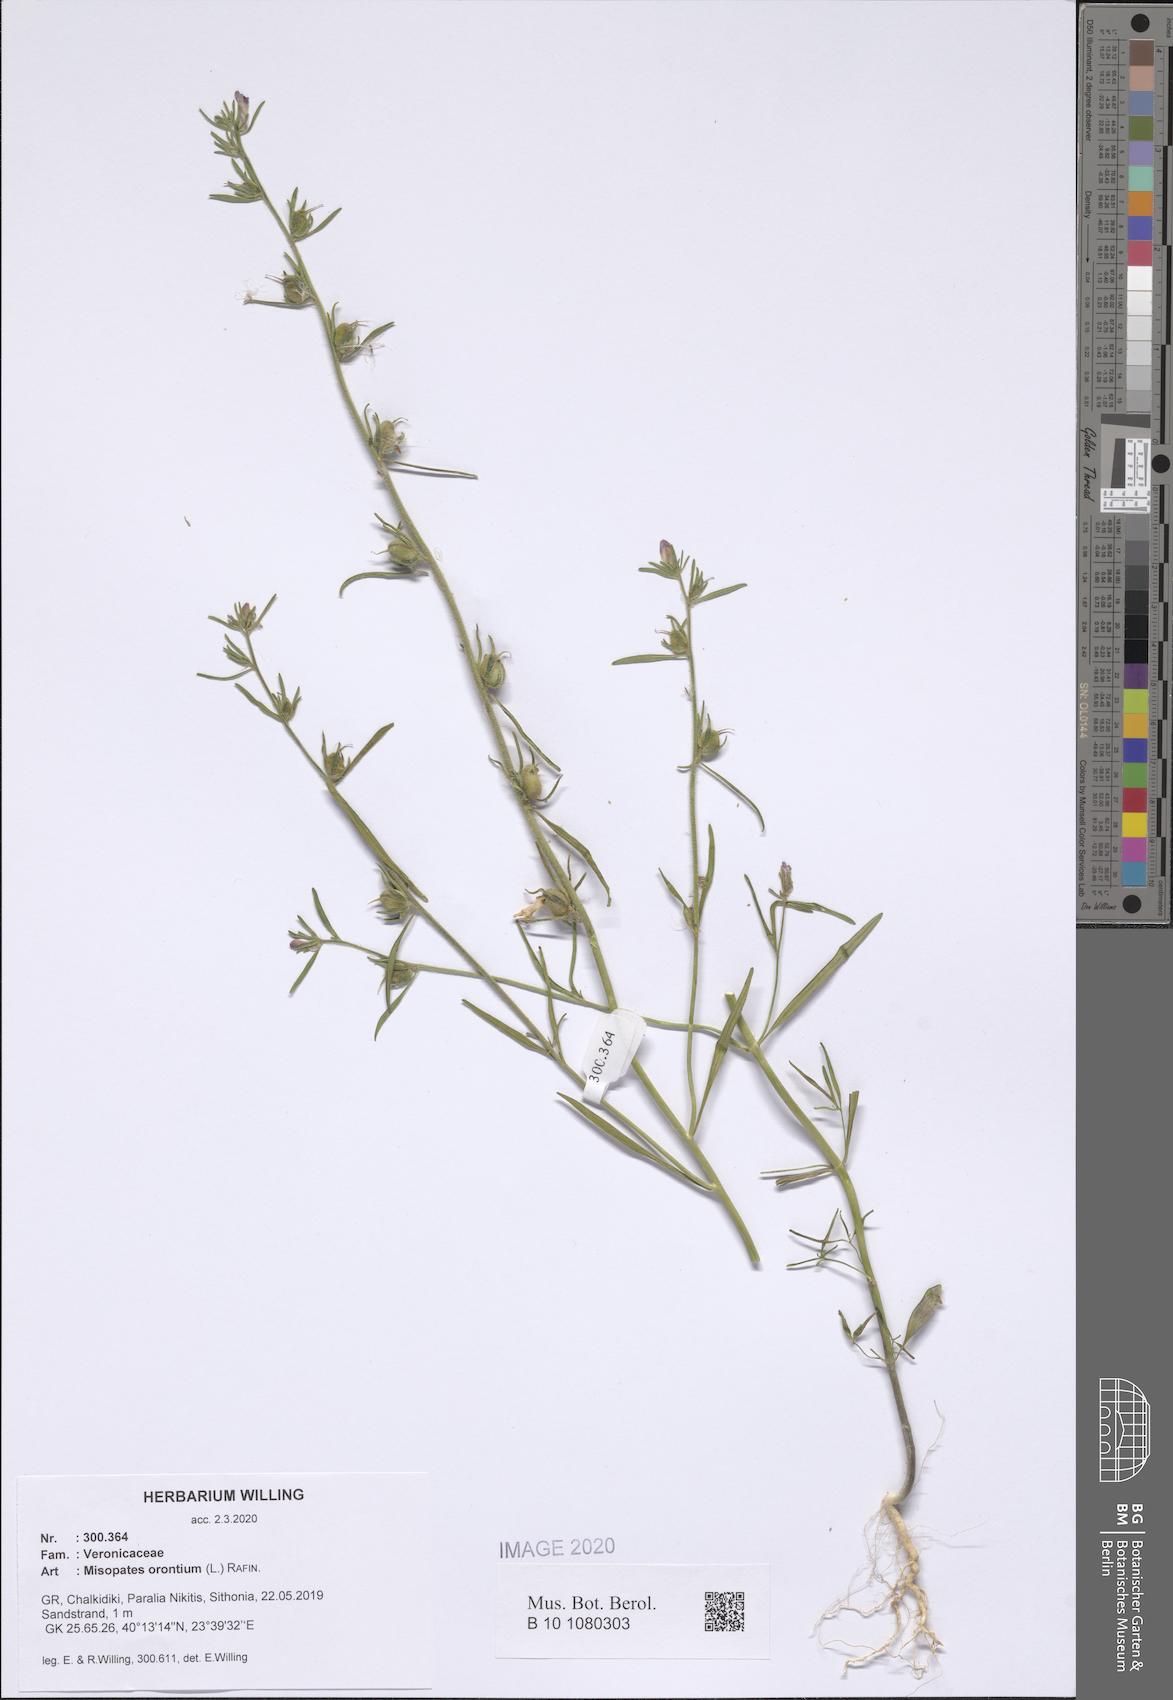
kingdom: Plantae
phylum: Tracheophyta
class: Magnoliopsida
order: Lamiales
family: Plantaginaceae
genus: Misopates
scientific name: Misopates orontium
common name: Weasel's-snout
